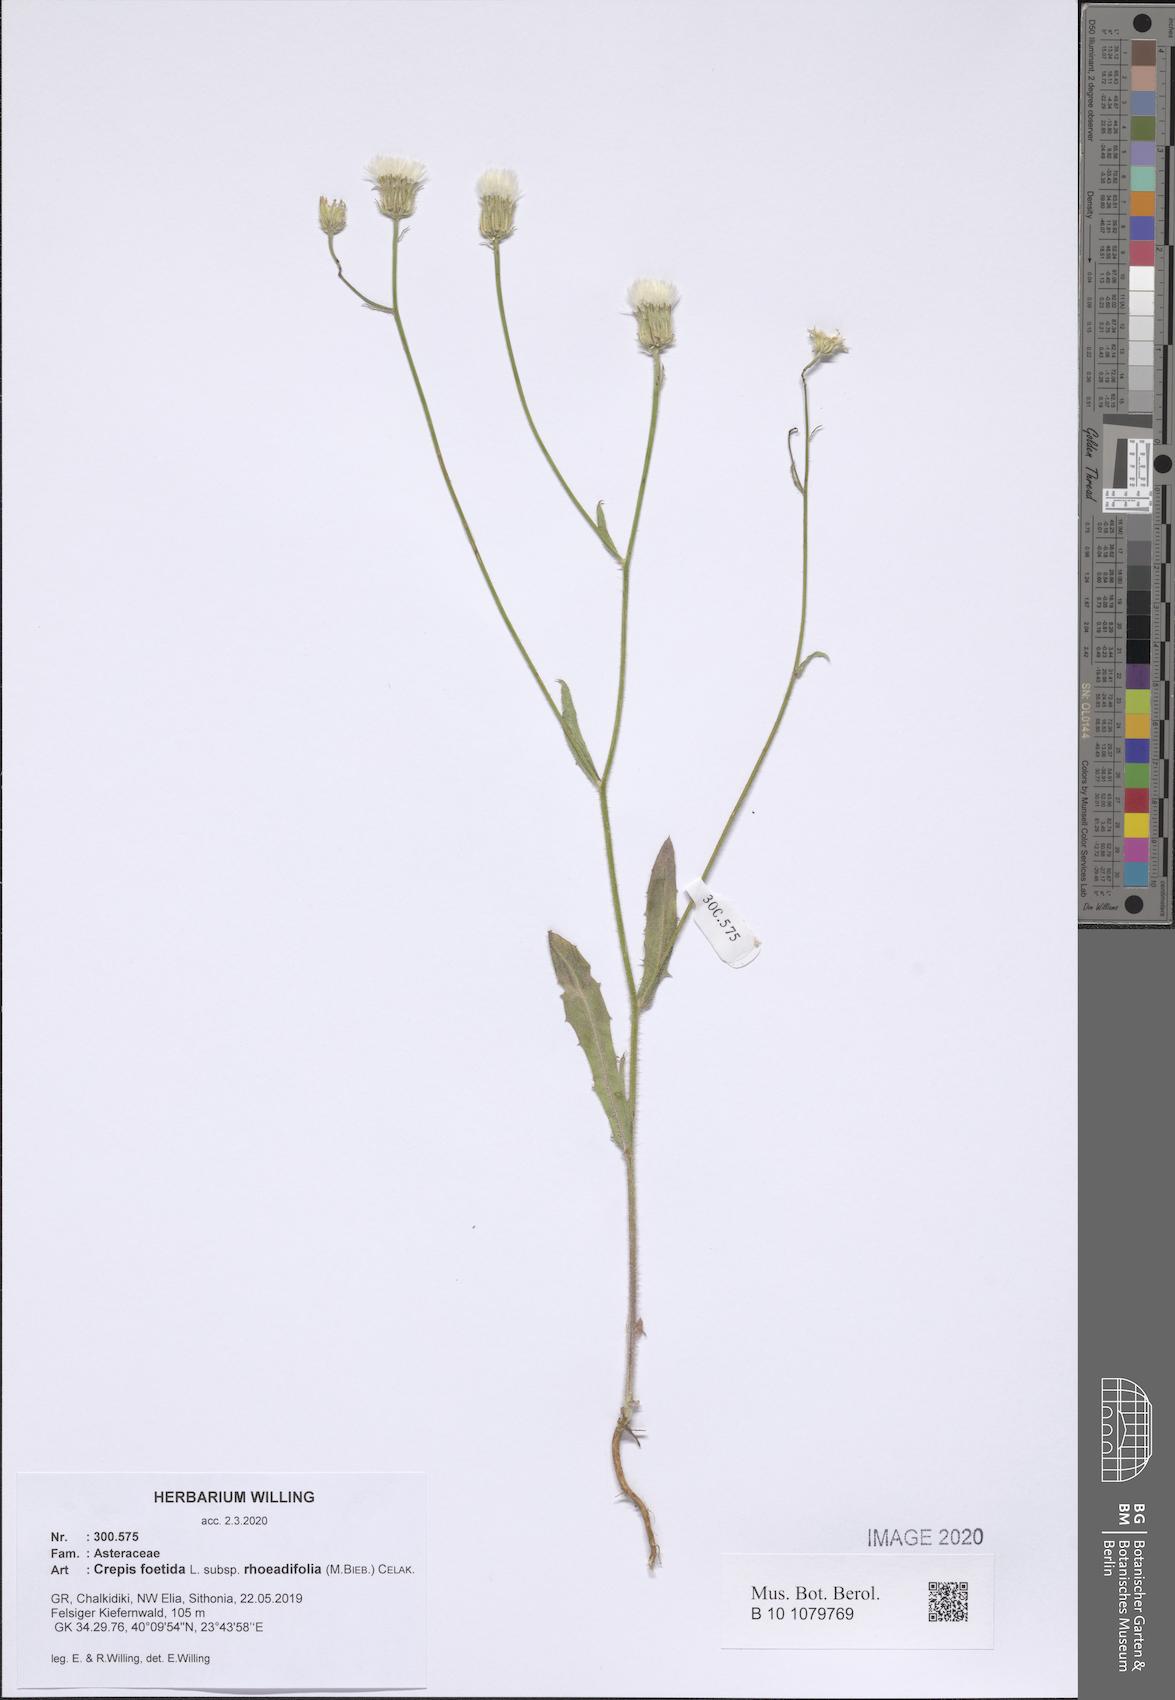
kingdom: Plantae
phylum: Tracheophyta
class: Magnoliopsida
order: Asterales
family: Asteraceae
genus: Crepis
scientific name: Crepis foetida
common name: Stinking hawk's-beard
